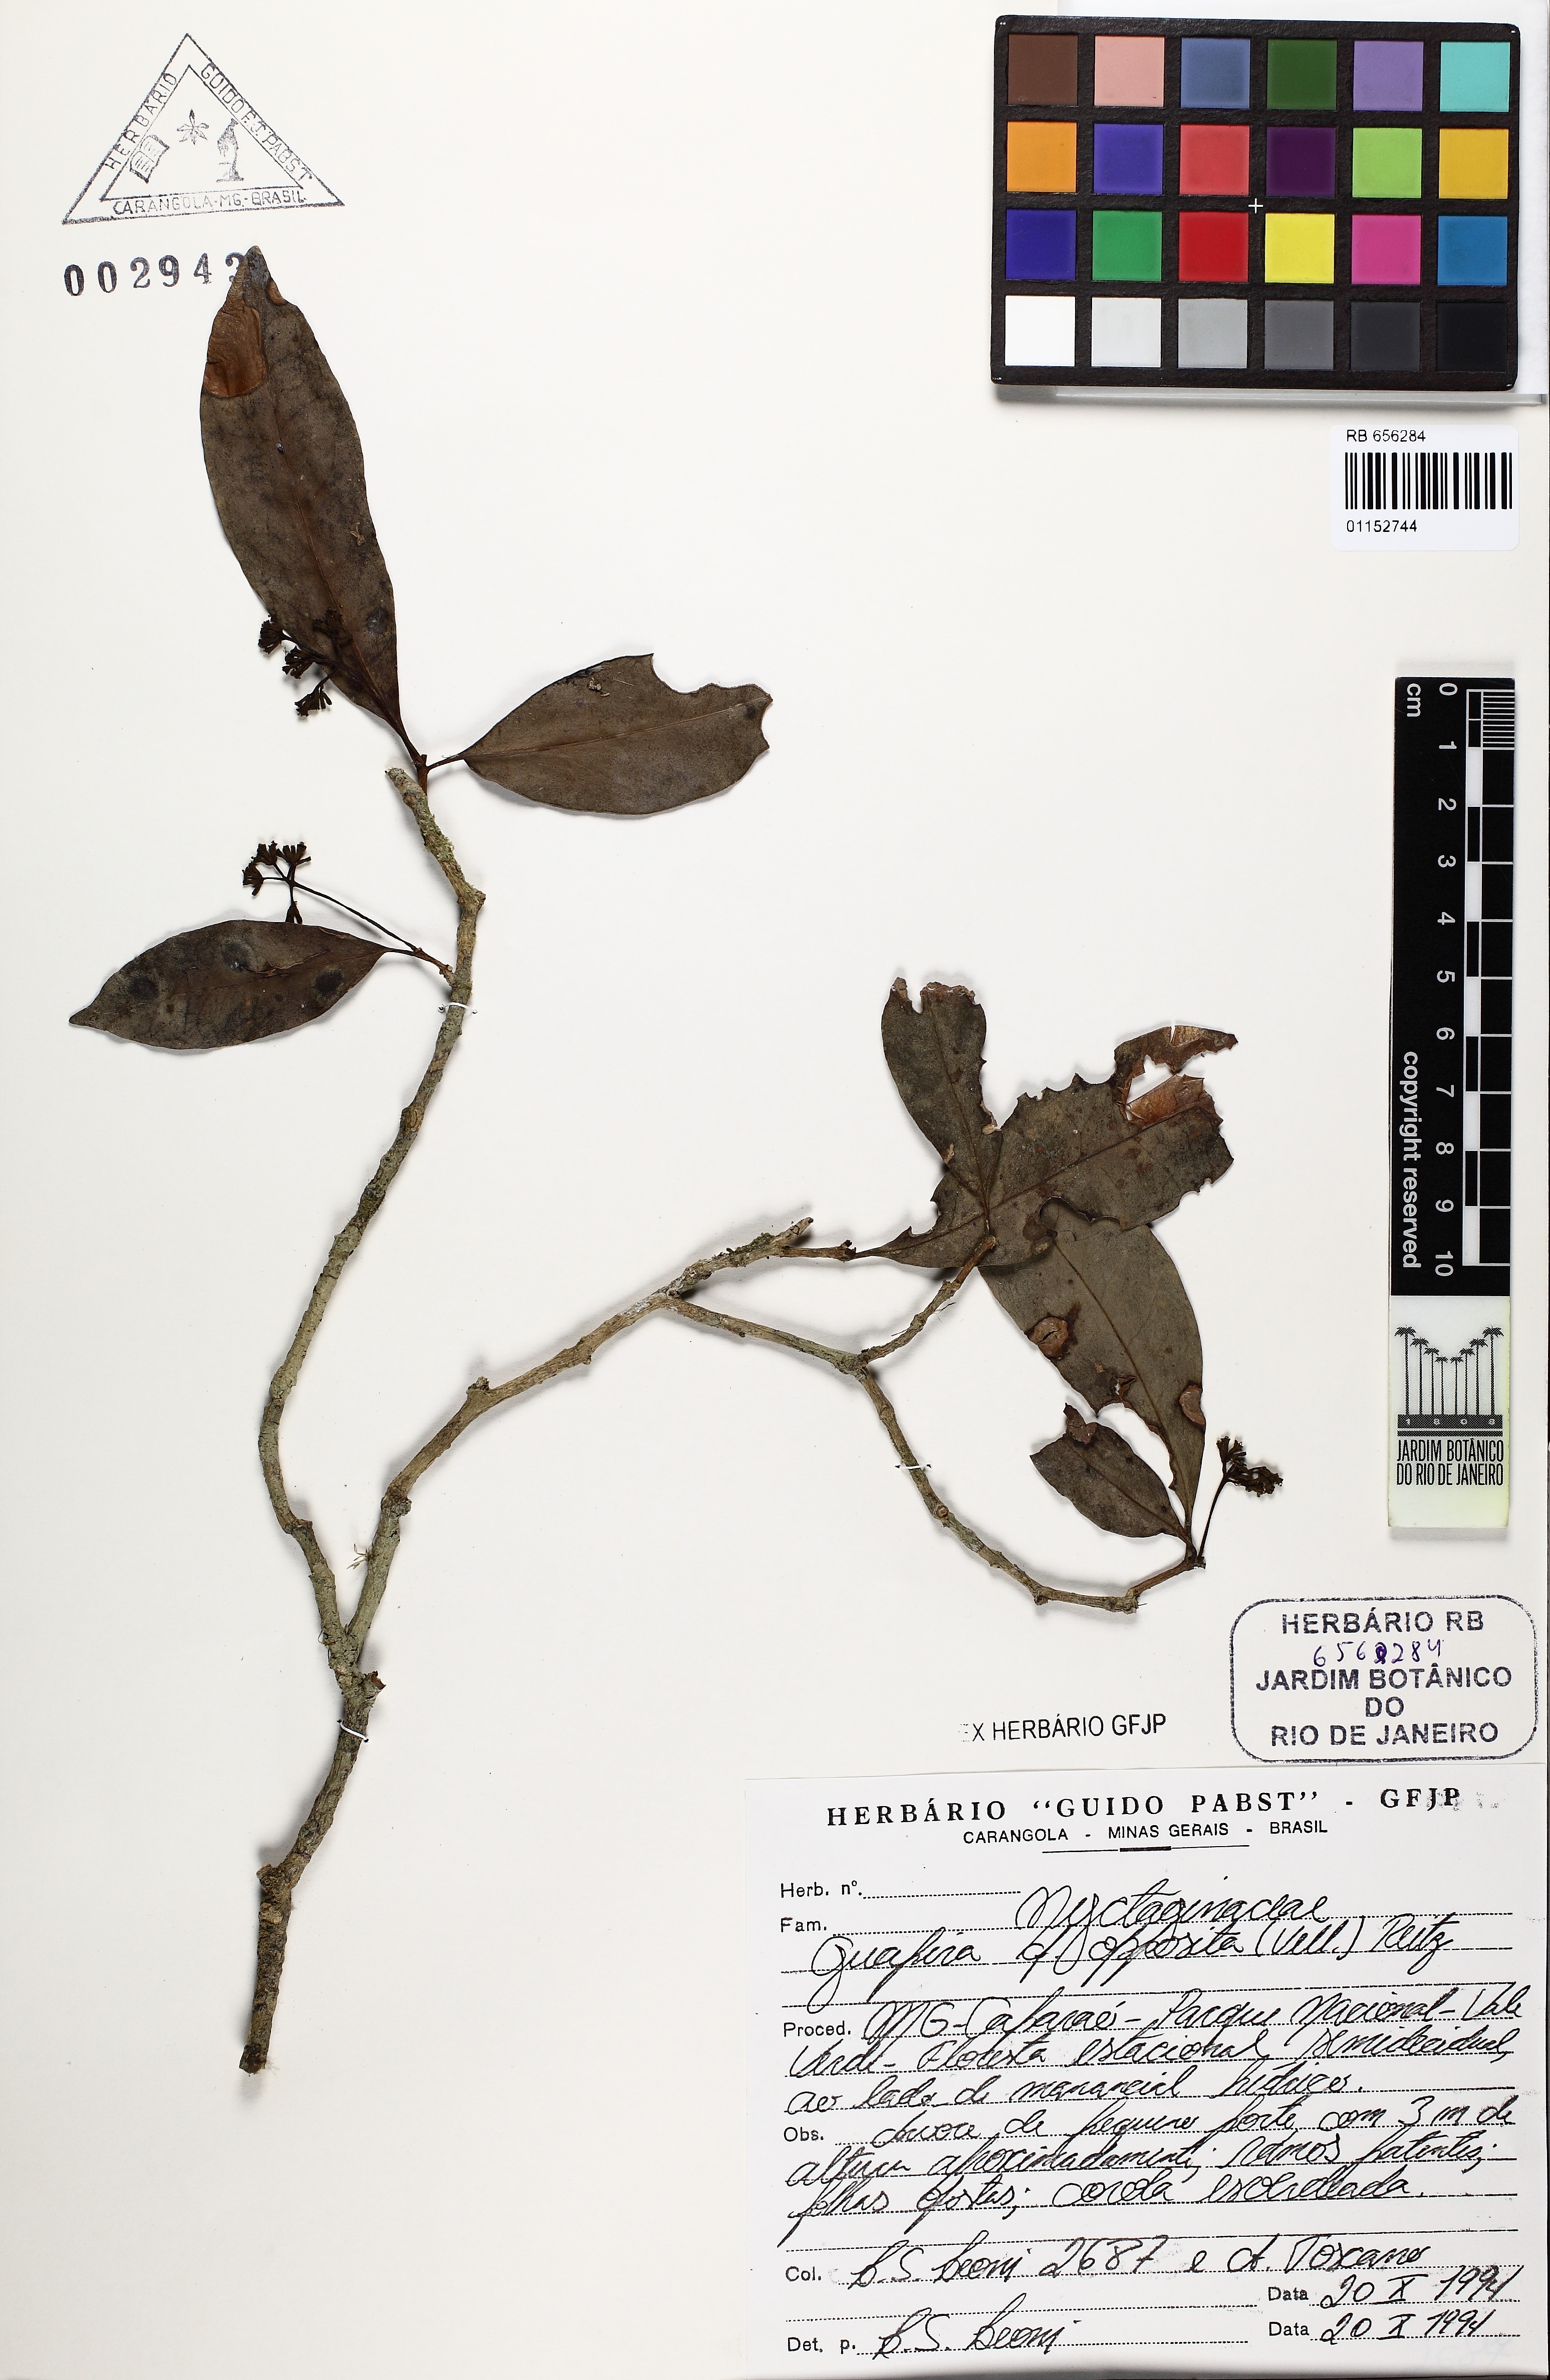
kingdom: Plantae
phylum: Tracheophyta
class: Magnoliopsida
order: Caryophyllales
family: Nyctaginaceae
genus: Guapira
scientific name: Guapira opposita
